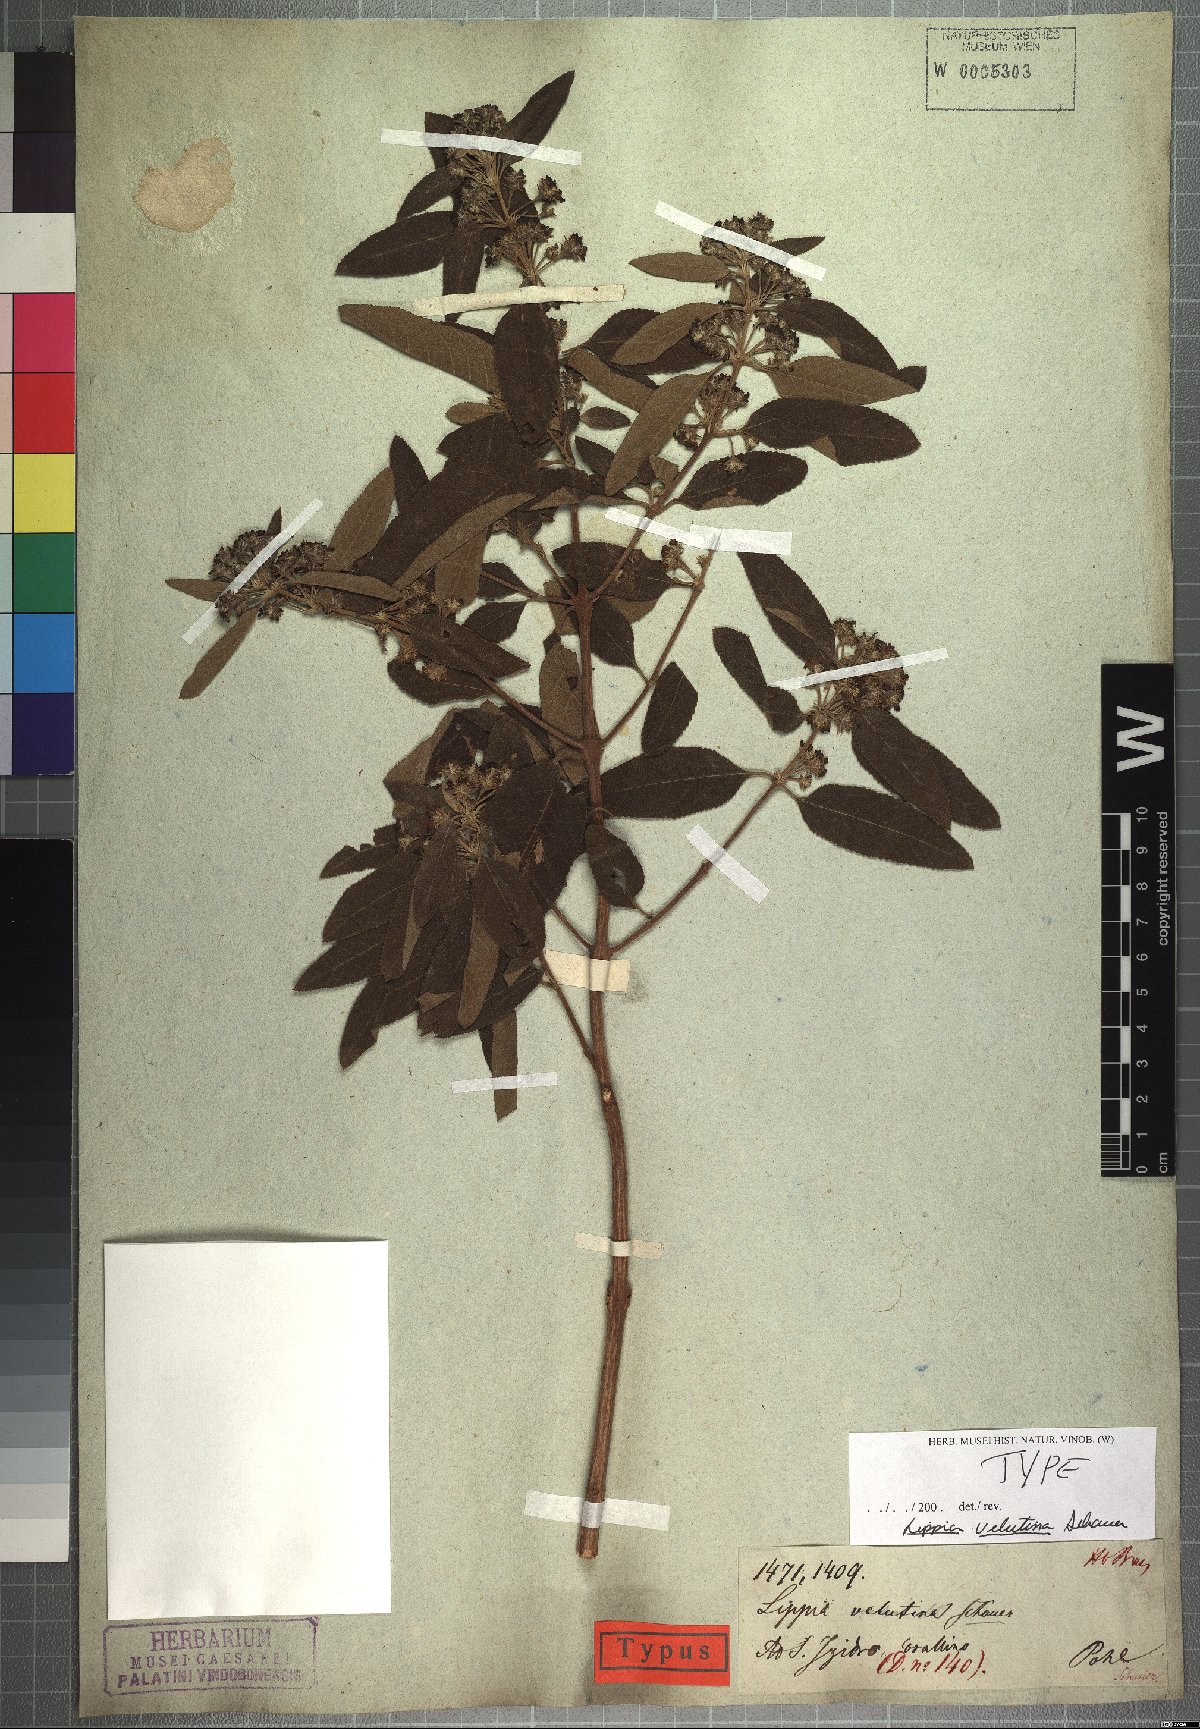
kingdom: Plantae
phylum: Tracheophyta
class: Magnoliopsida
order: Lamiales
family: Verbenaceae
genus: Lippia
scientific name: Lippia origanoides
